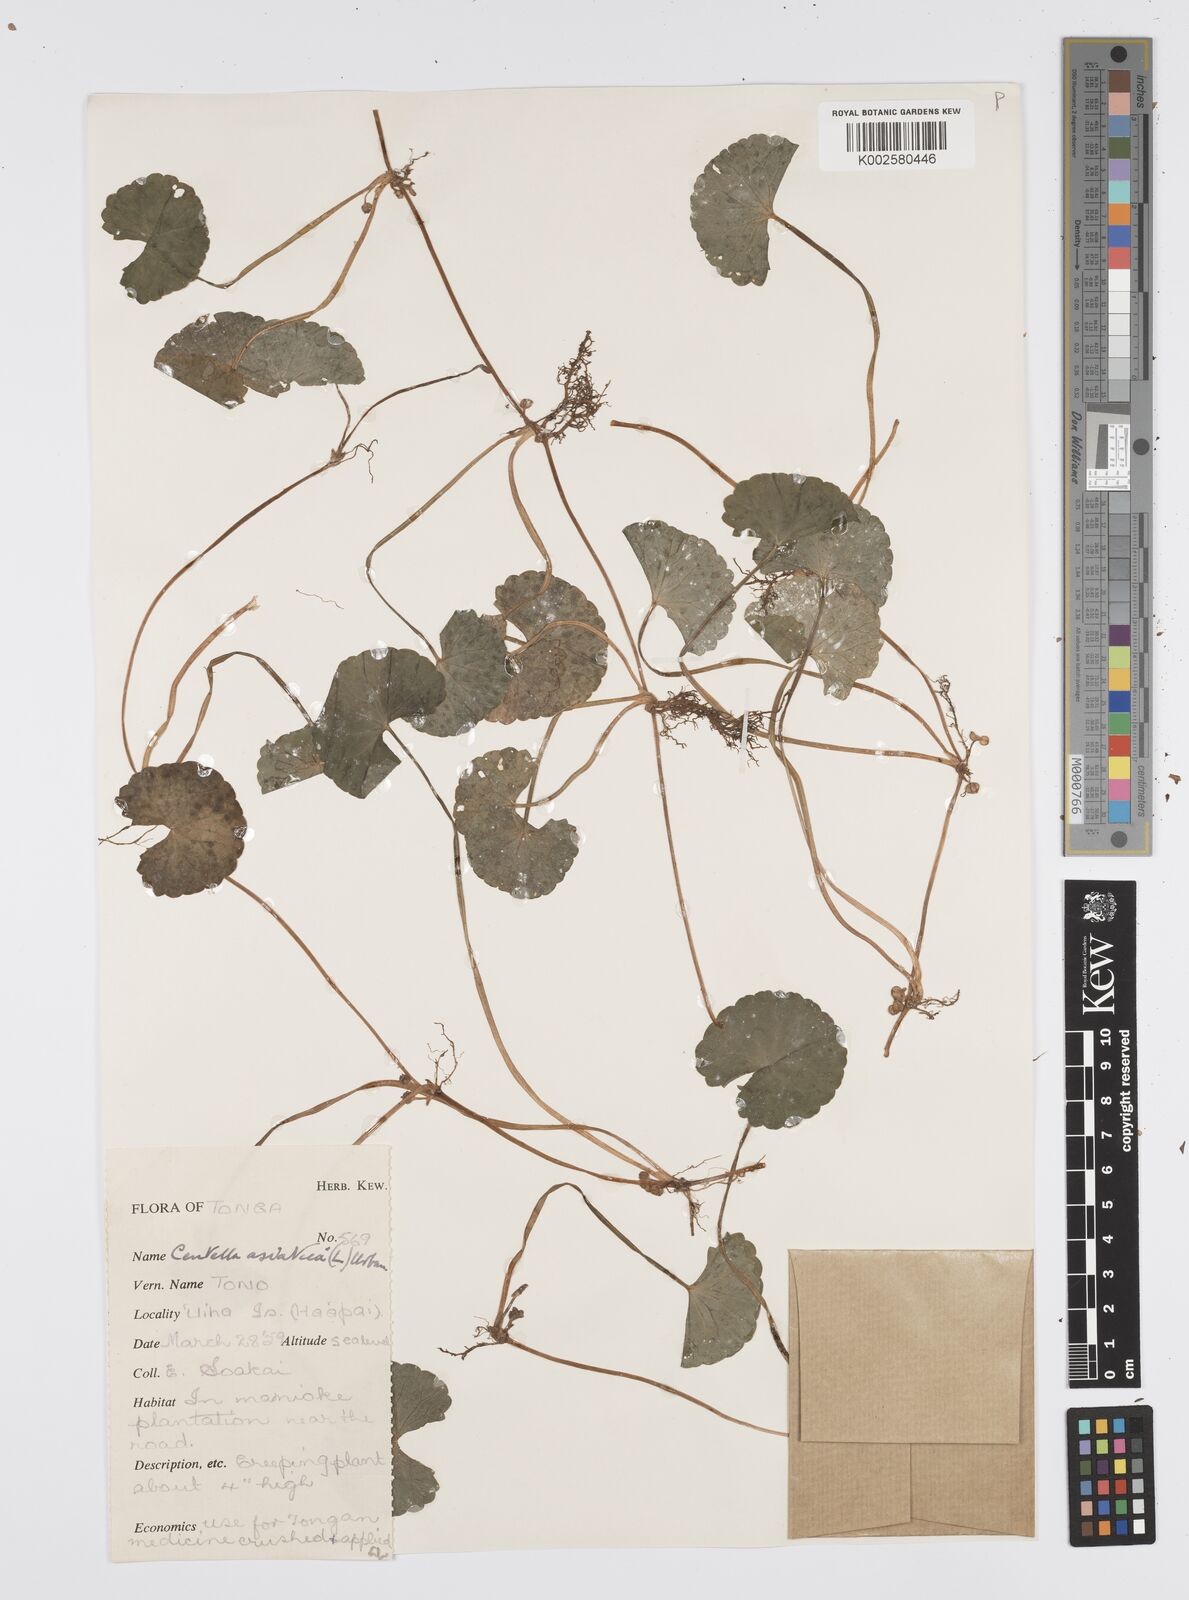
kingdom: Plantae
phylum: Tracheophyta
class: Magnoliopsida
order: Apiales
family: Apiaceae
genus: Centella
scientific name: Centella asiatica
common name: Spadeleaf
